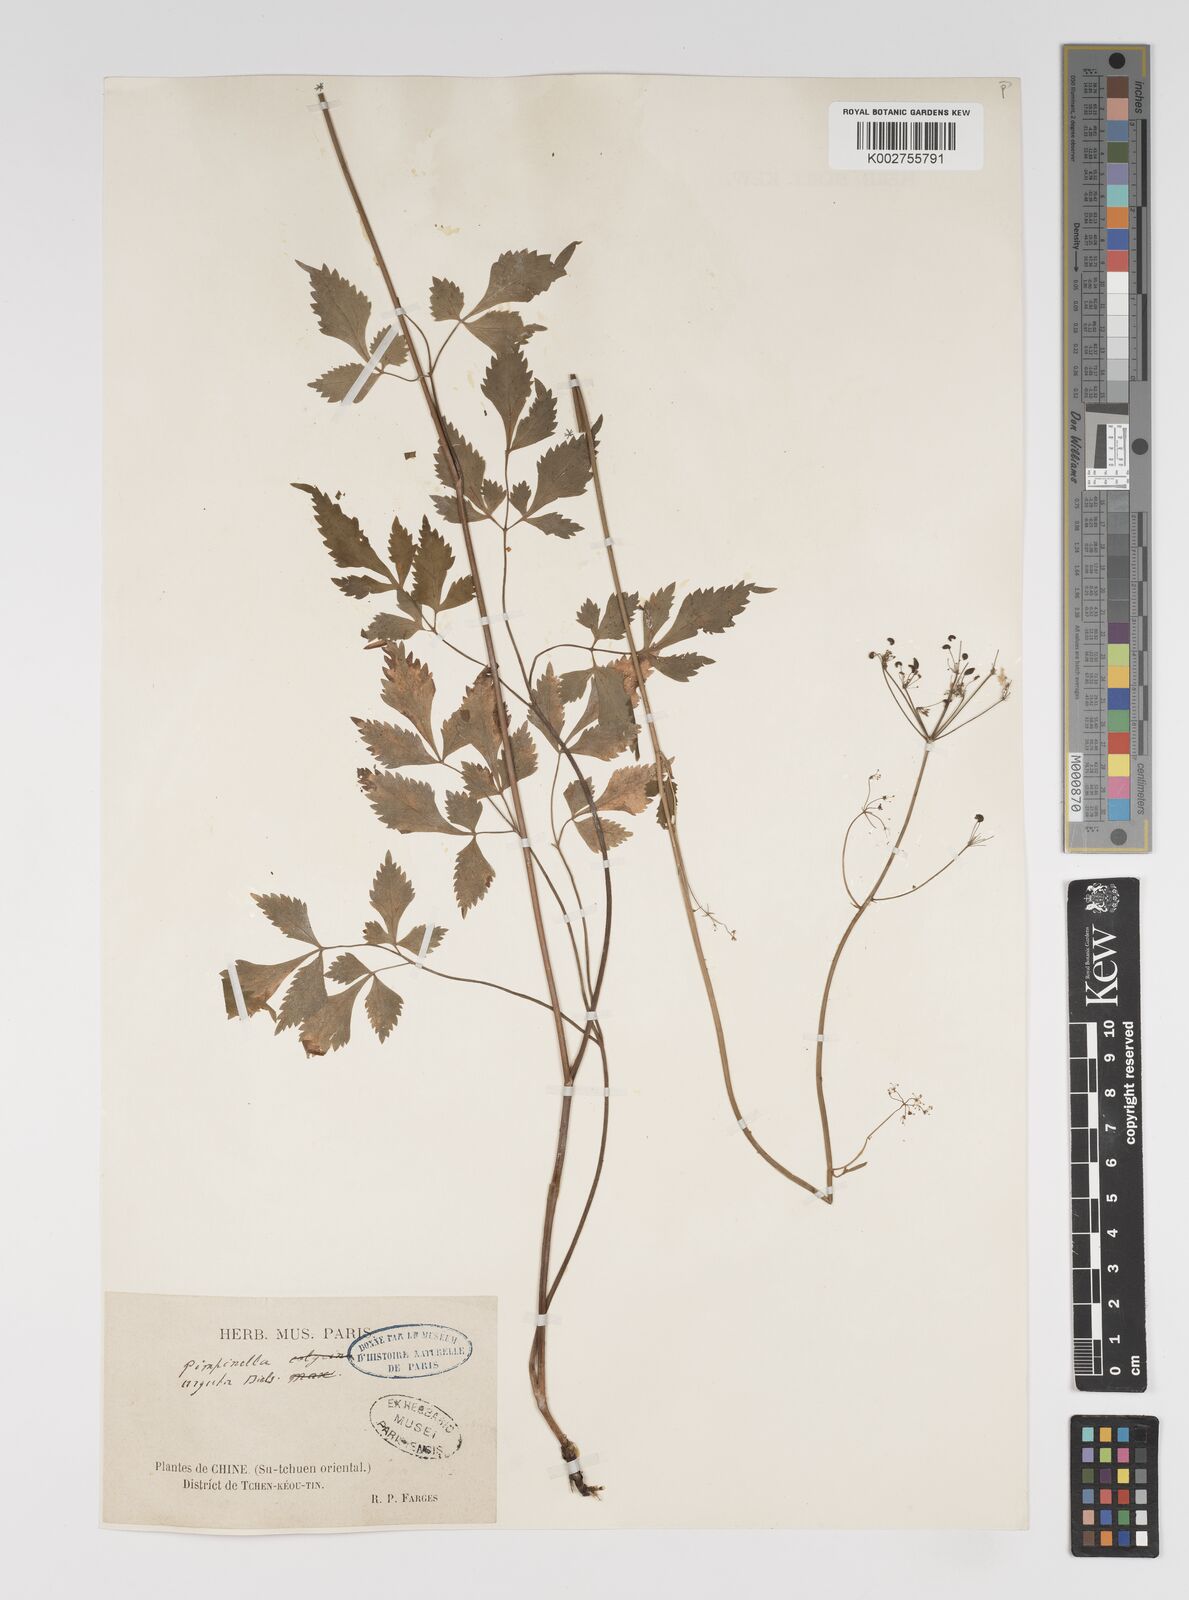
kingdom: Plantae
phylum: Tracheophyta
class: Magnoliopsida
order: Apiales
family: Apiaceae
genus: Spuriopimpinella
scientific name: Spuriopimpinella arguta
